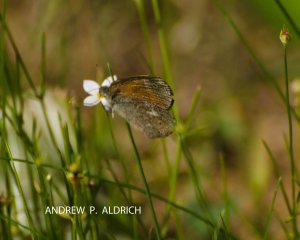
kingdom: Animalia
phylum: Arthropoda
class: Insecta
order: Lepidoptera
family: Nymphalidae
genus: Coenonympha
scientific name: Coenonympha tullia
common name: Large Heath
